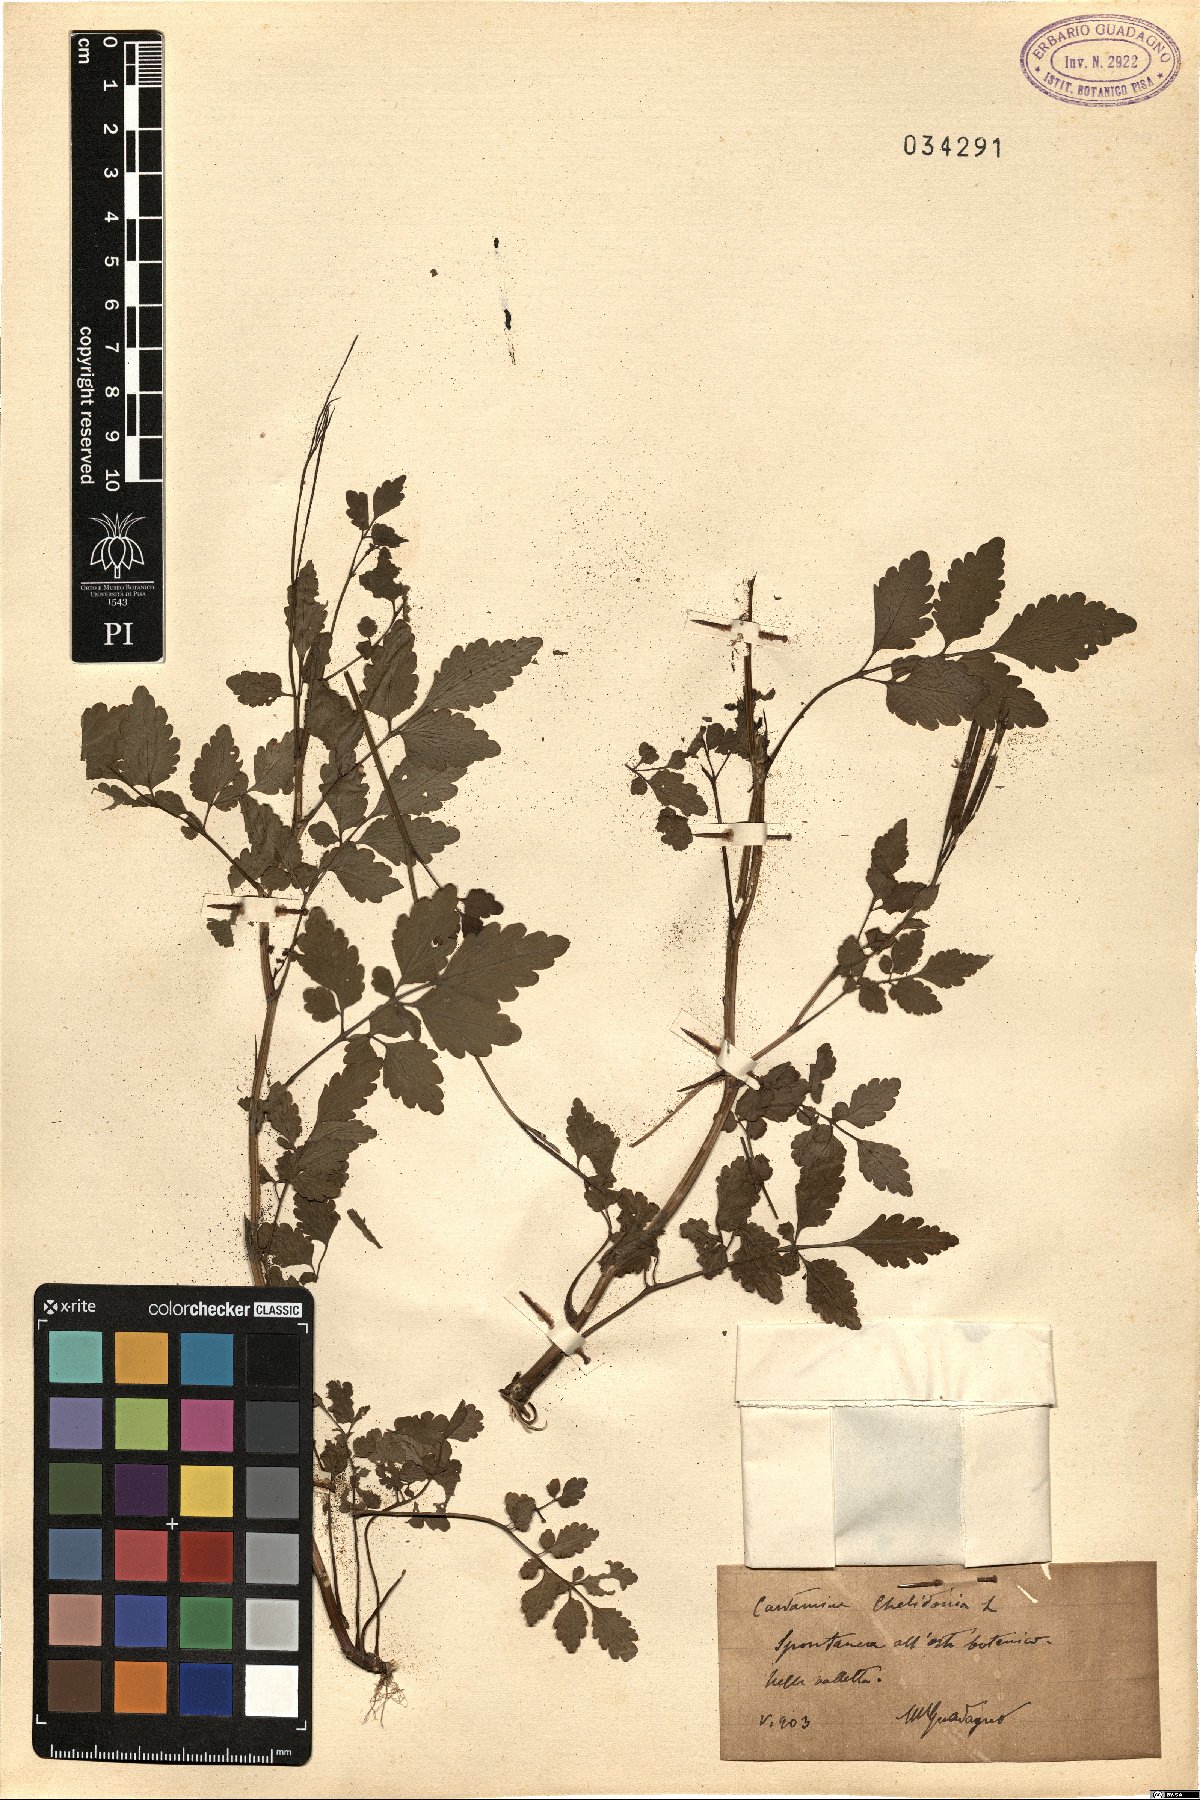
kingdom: Plantae
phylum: Tracheophyta
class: Magnoliopsida
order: Brassicales
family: Brassicaceae
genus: Cardamine
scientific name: Cardamine chelidonia
